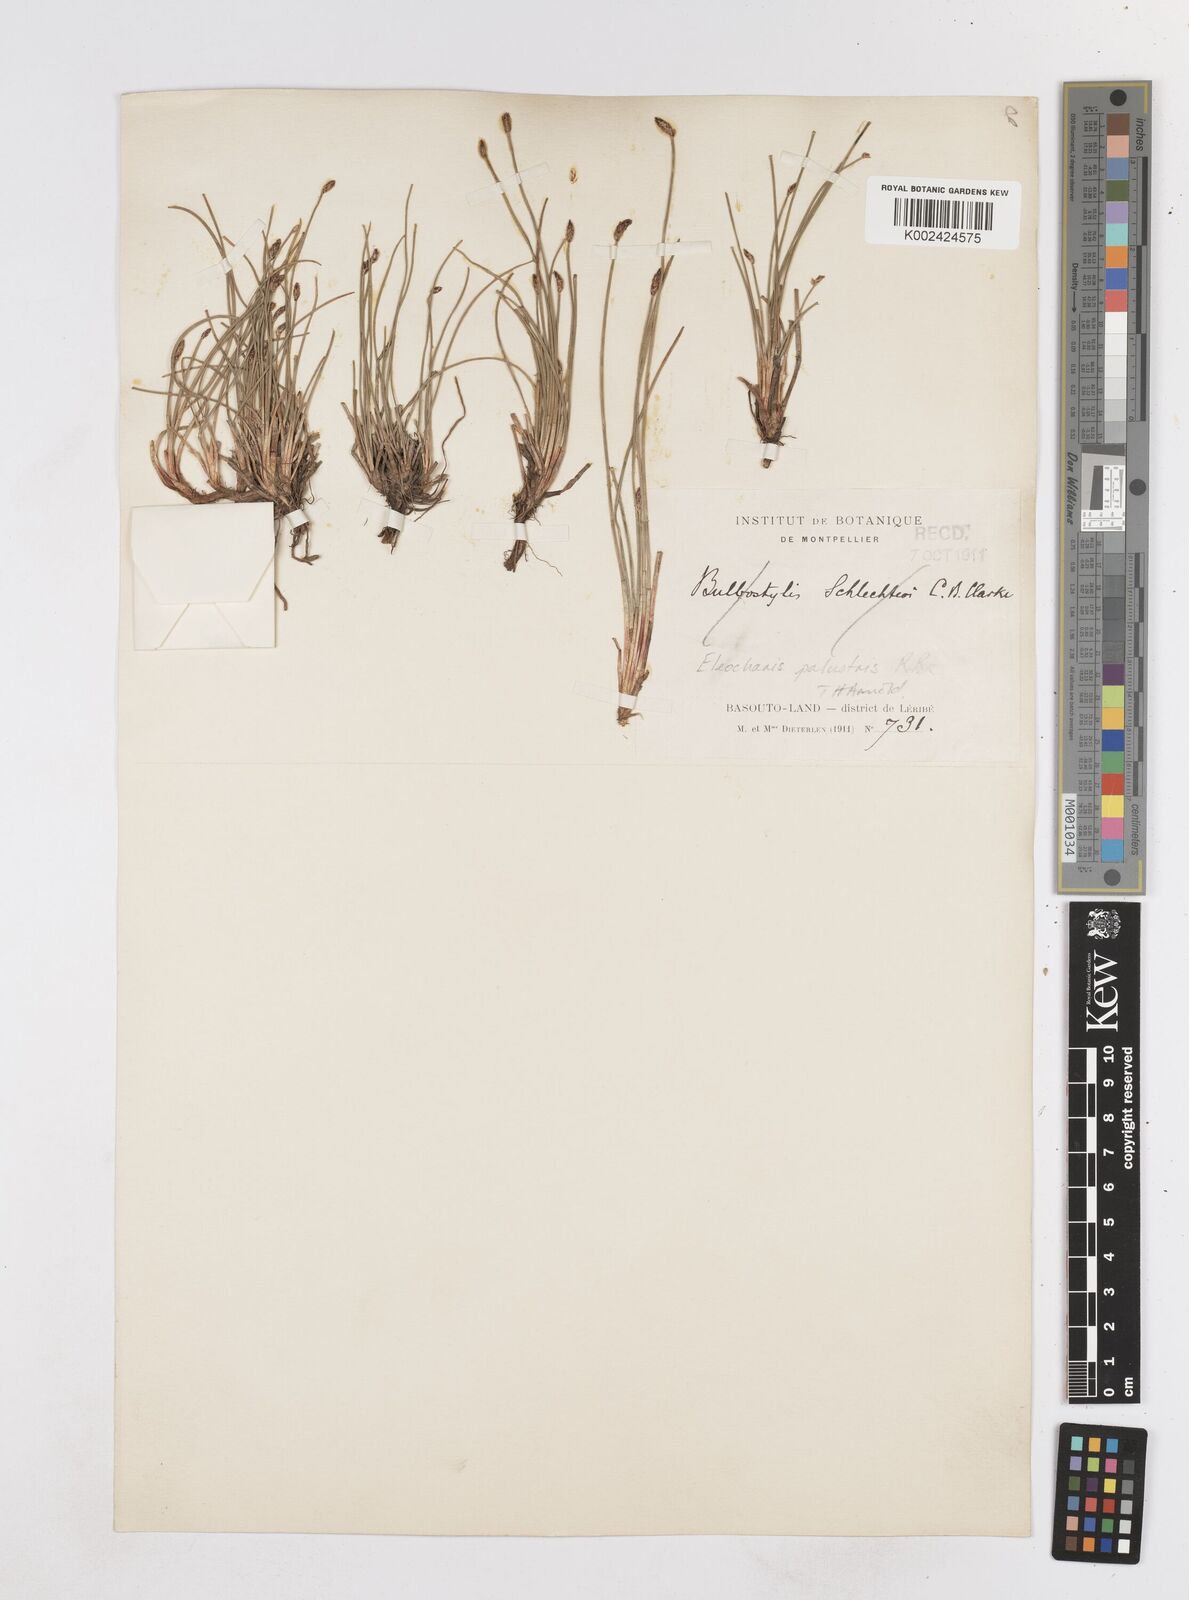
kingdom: Plantae
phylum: Tracheophyta
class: Liliopsida
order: Poales
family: Cyperaceae
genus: Eleocharis
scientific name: Eleocharis palustris
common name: Common spike-rush
